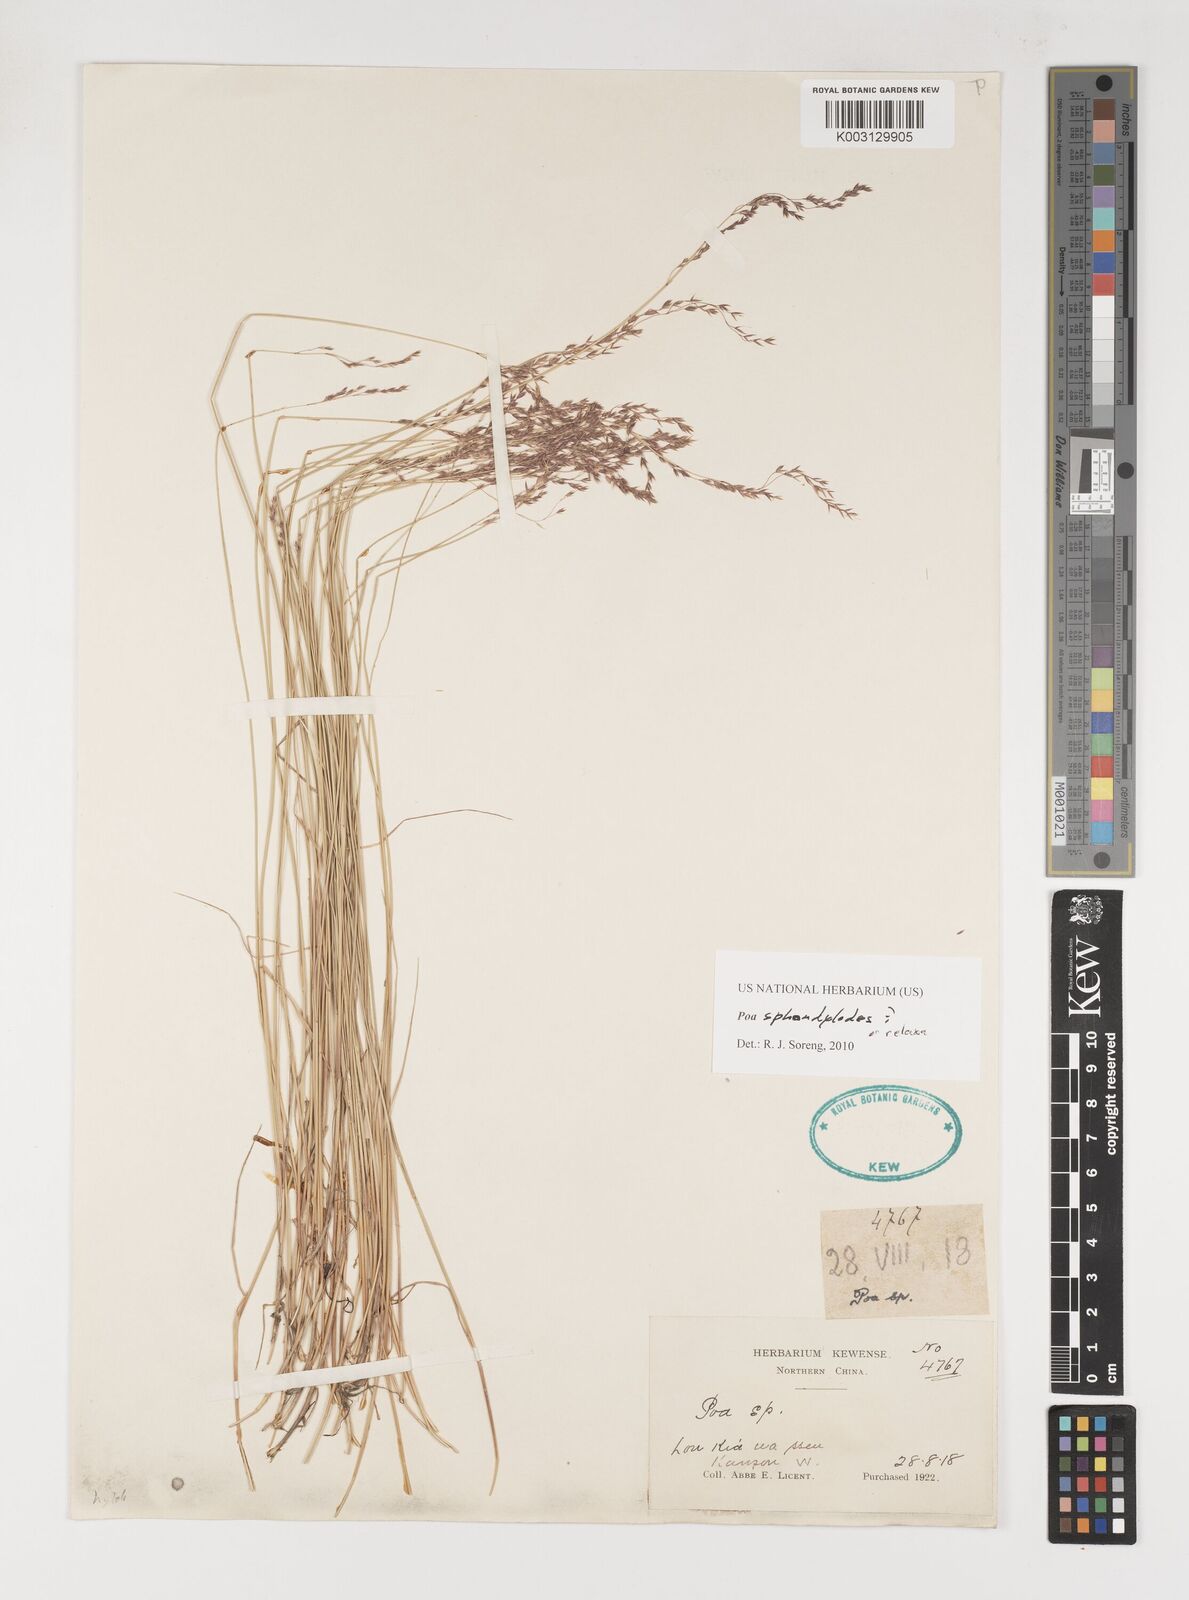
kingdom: Plantae
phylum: Tracheophyta
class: Liliopsida
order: Poales
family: Poaceae
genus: Poa
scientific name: Poa sphondylodes
